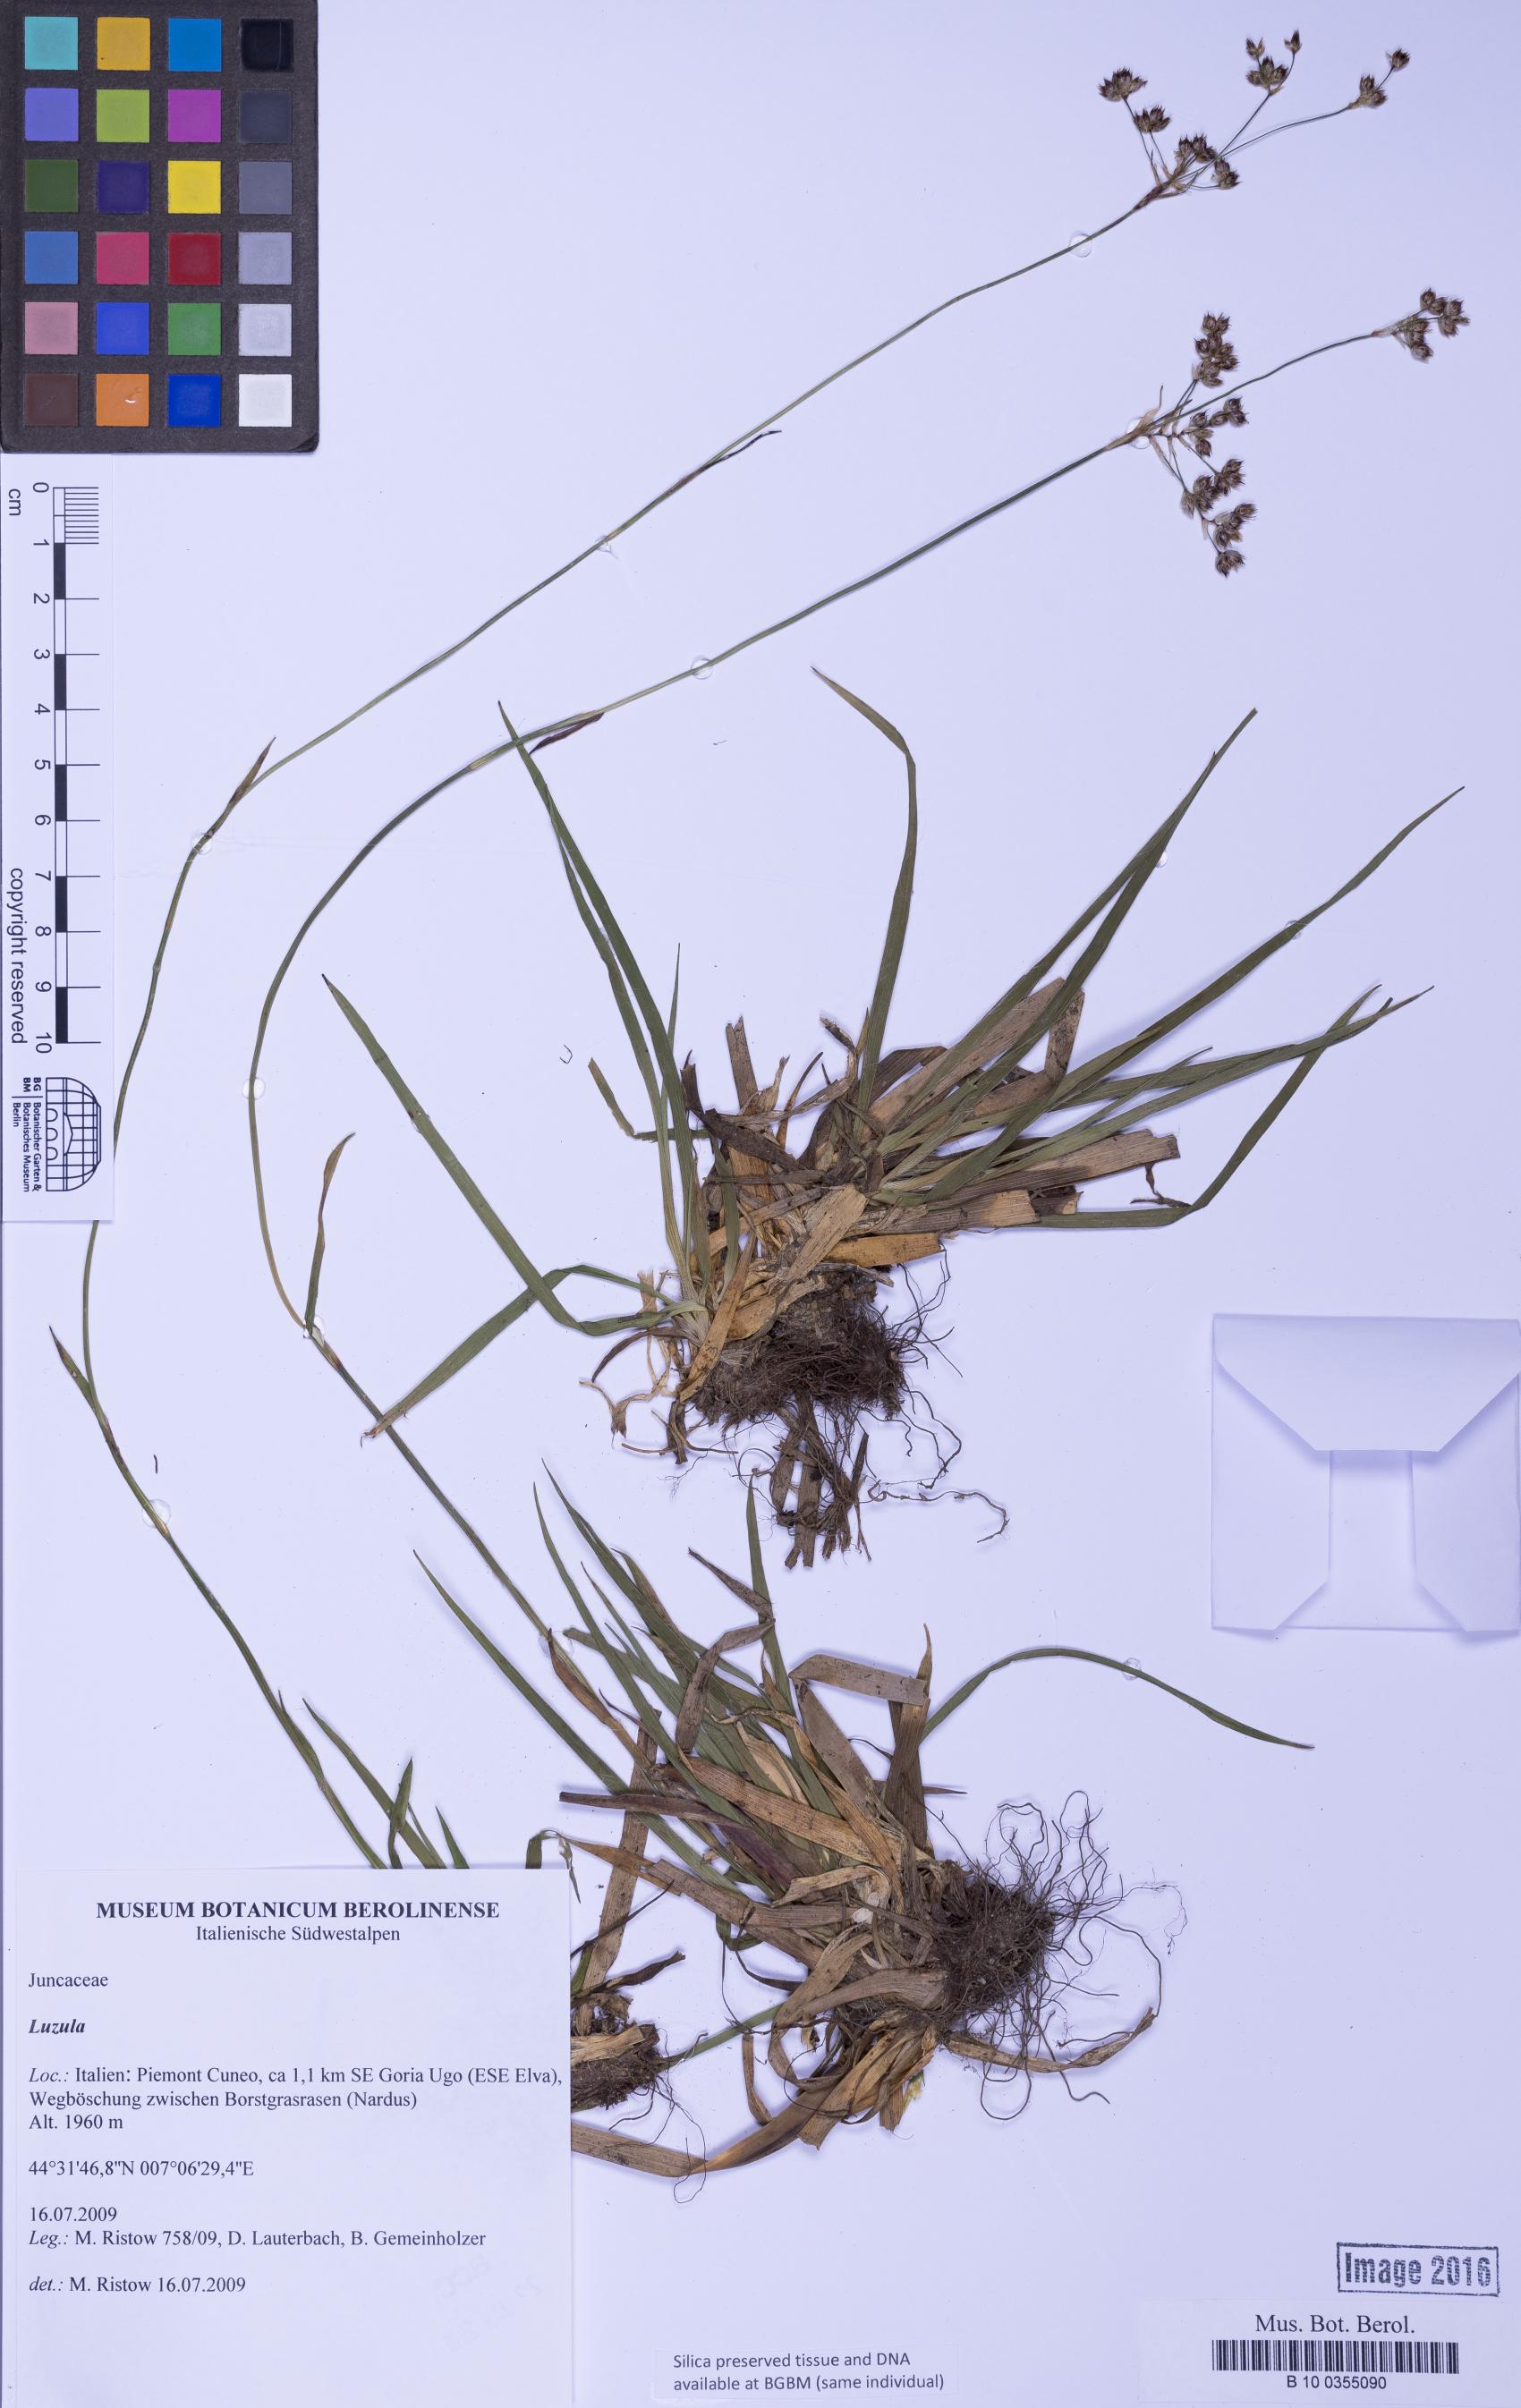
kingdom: Plantae
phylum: Tracheophyta
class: Liliopsida
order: Poales
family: Juncaceae
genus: Luzula
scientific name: Luzula
